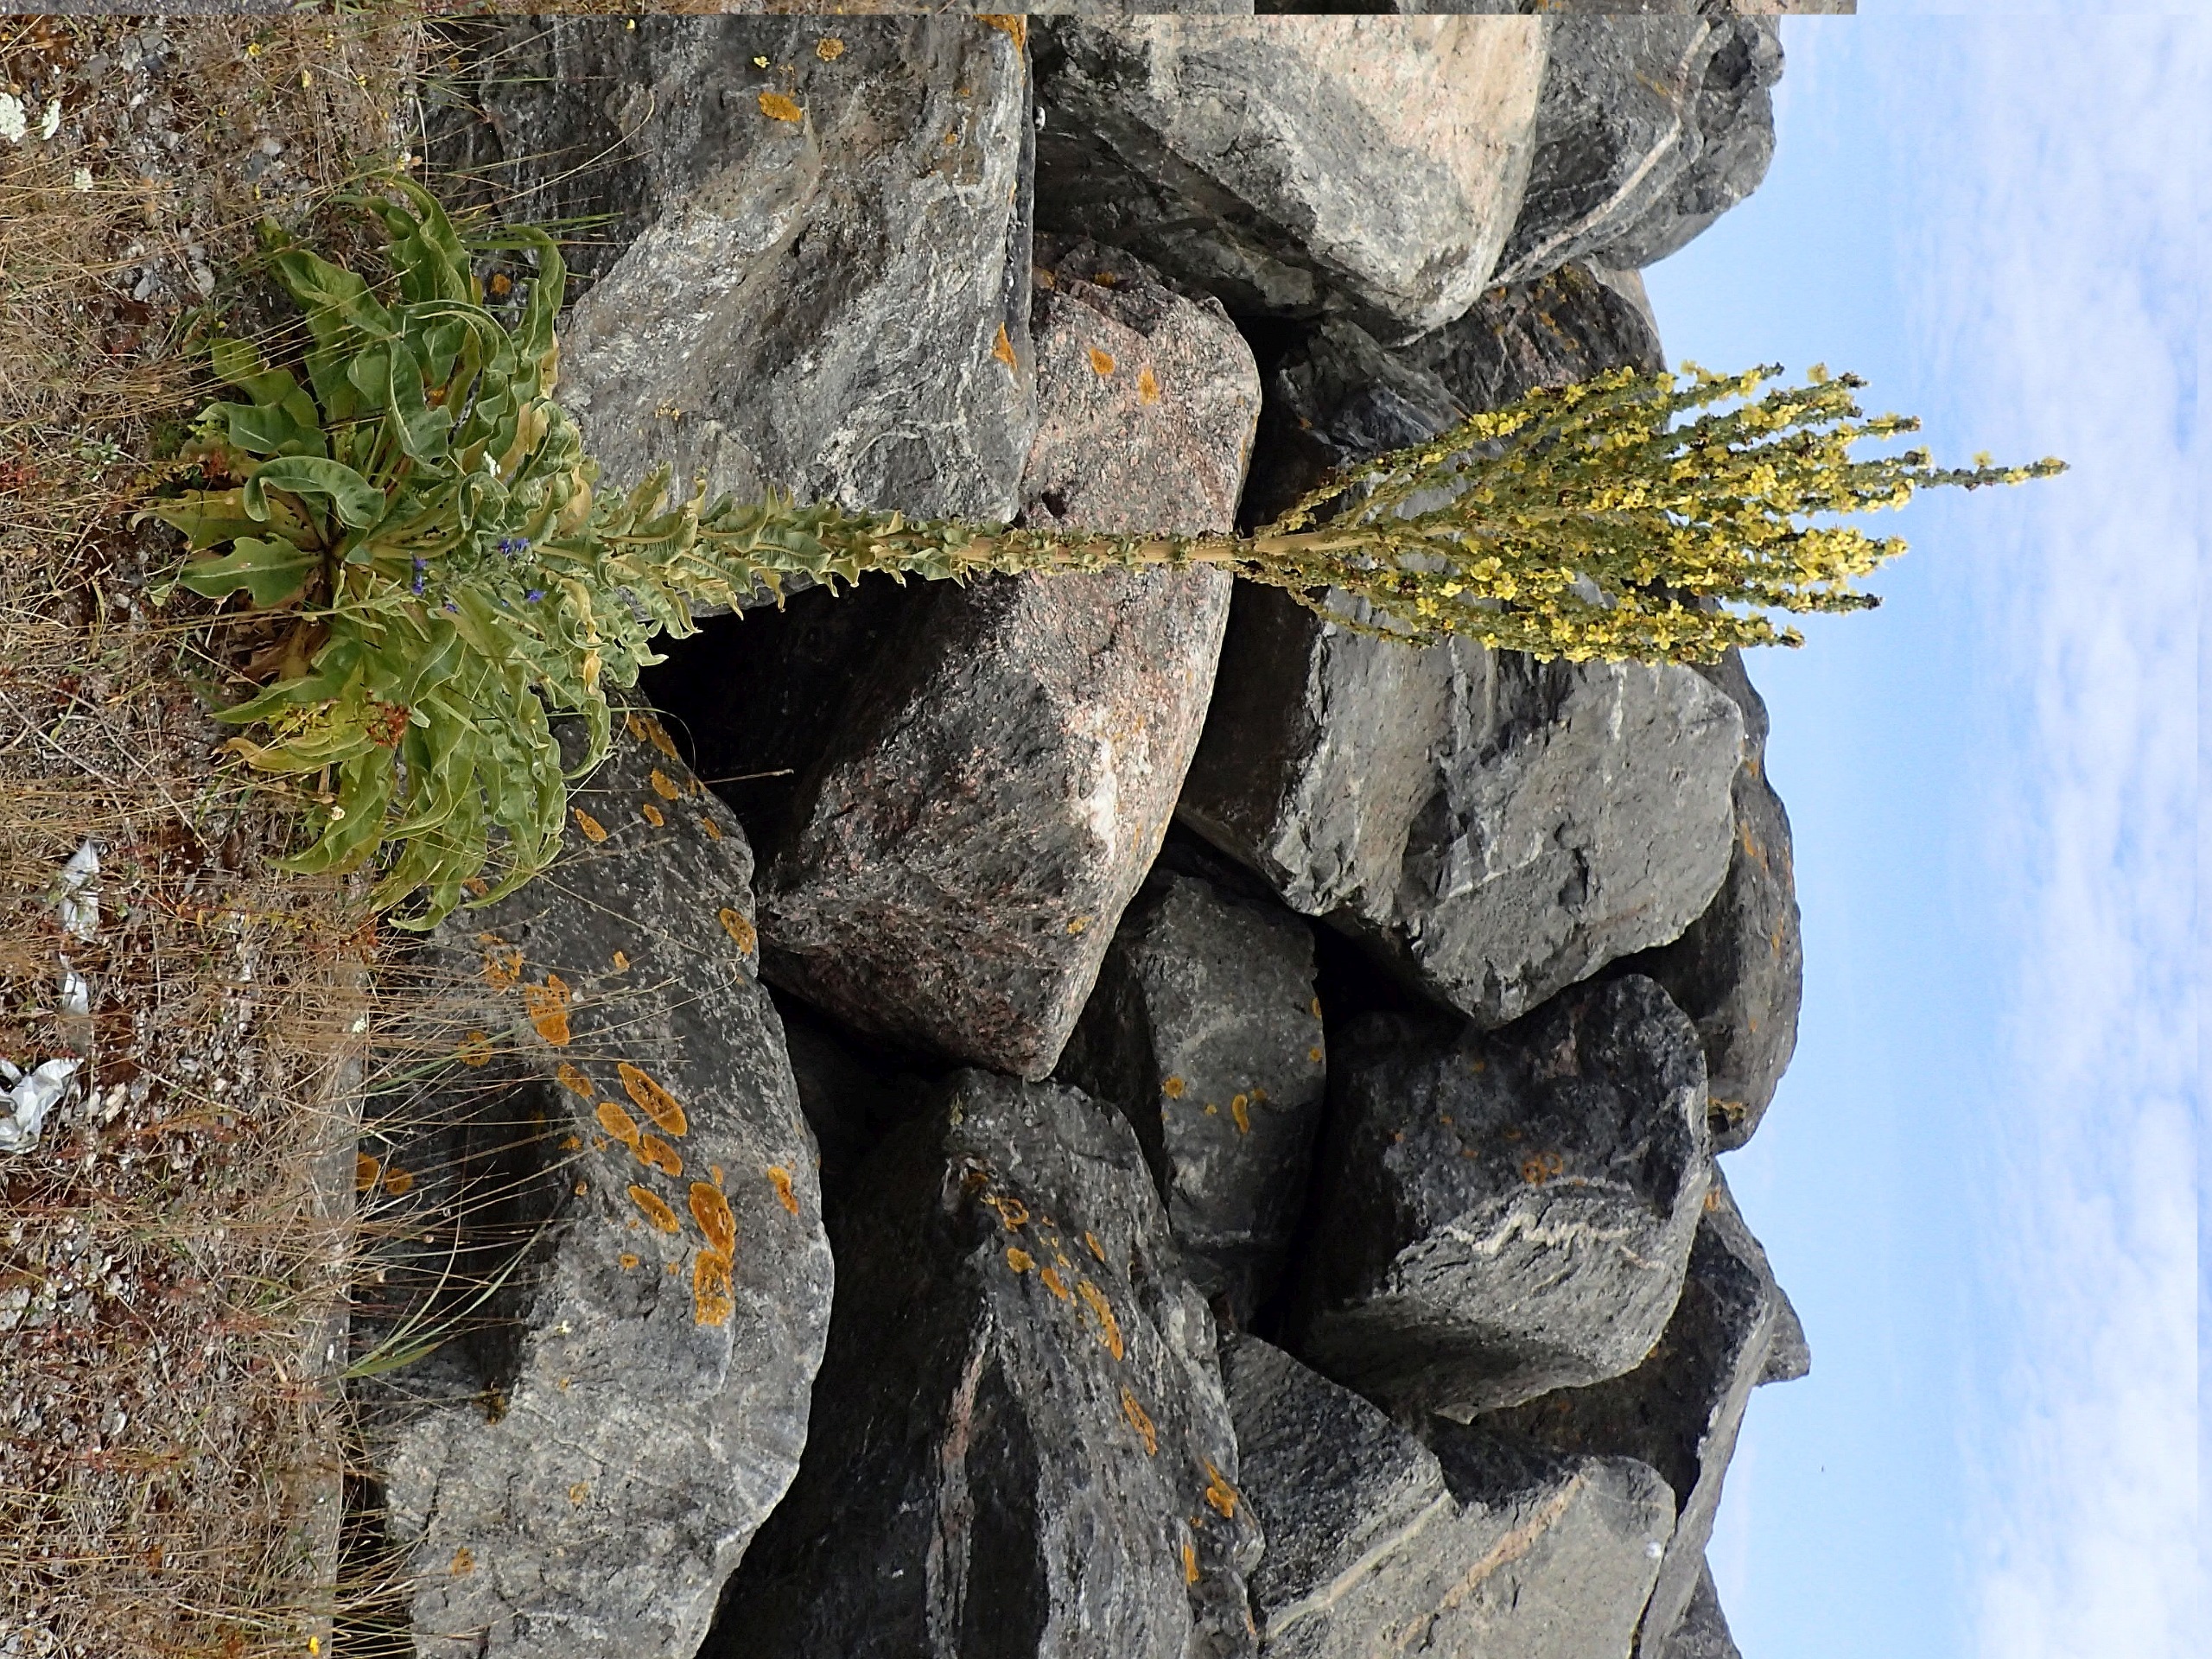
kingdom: Plantae
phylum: Tracheophyta
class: Magnoliopsida
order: Lamiales
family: Scrophulariaceae
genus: Verbascum
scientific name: Verbascum speciosum
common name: Kandelaber-kongelys
